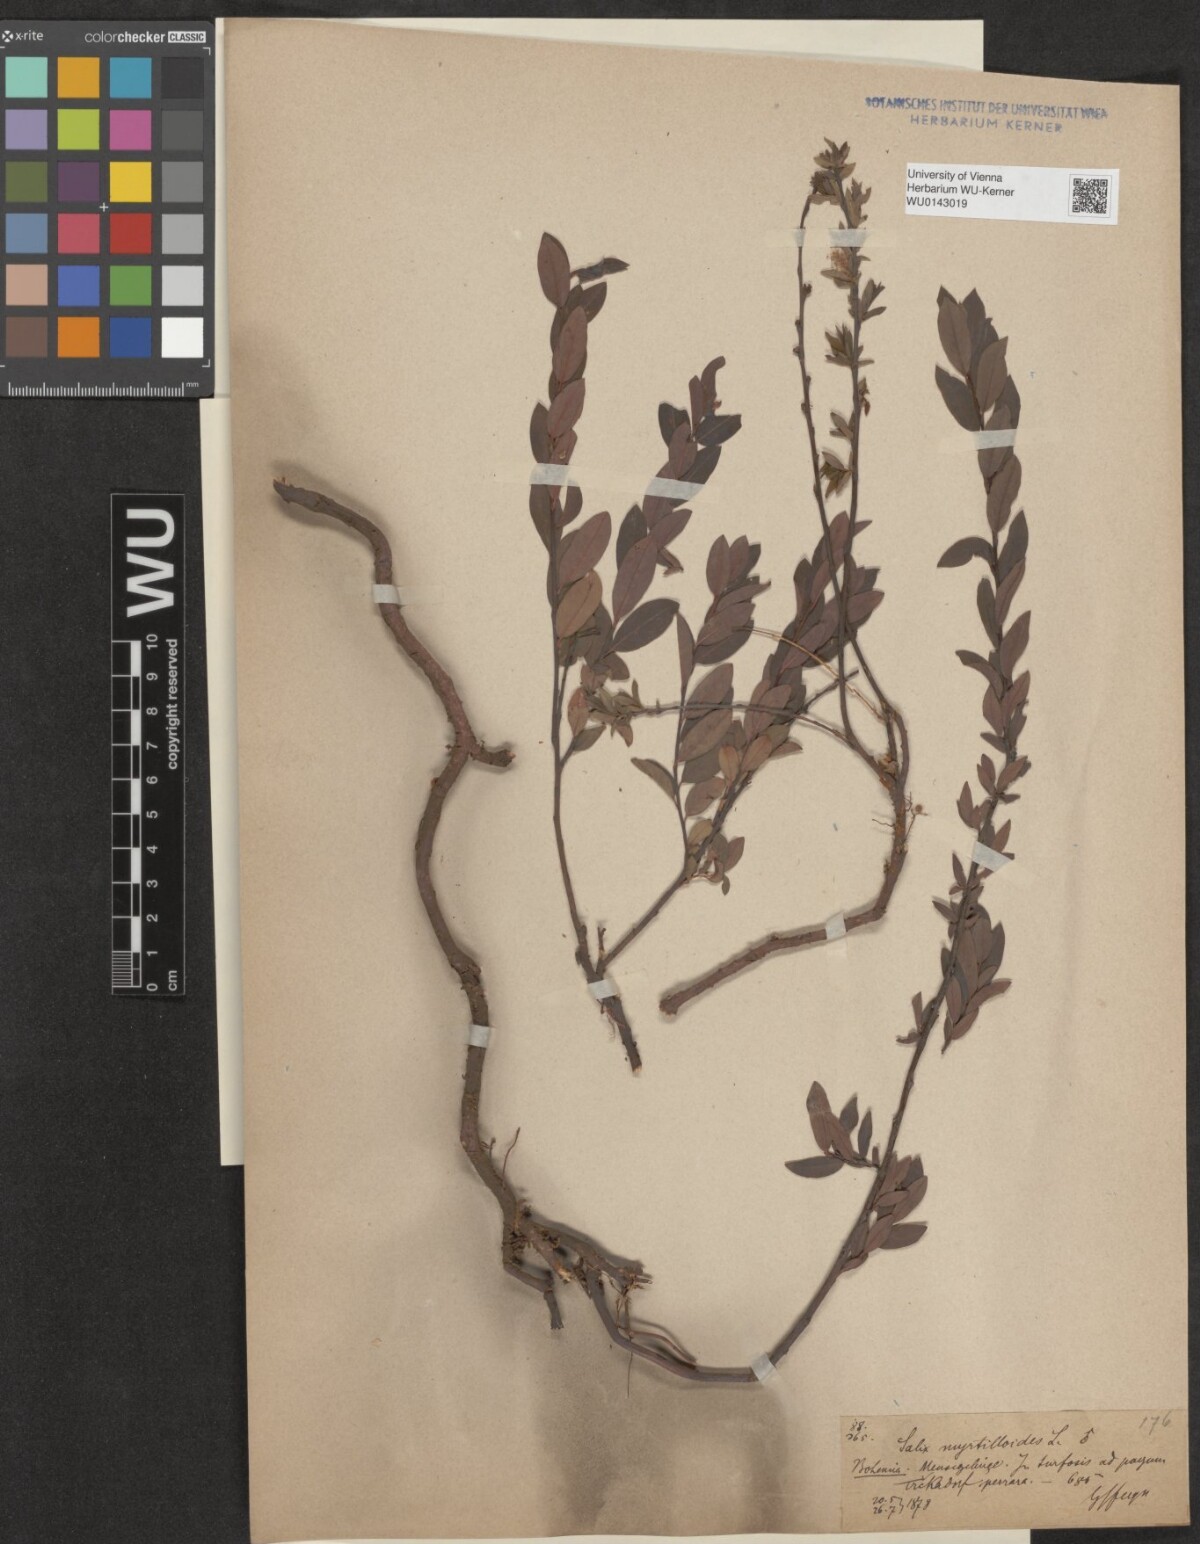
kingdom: Plantae
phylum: Tracheophyta
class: Magnoliopsida
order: Malpighiales
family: Salicaceae
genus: Salix
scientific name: Salix myrtilloides
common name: Myrtle-leaved willow
